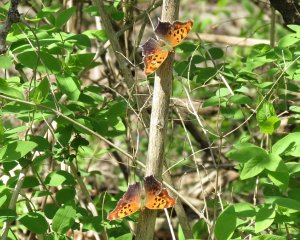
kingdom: Animalia
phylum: Arthropoda
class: Insecta
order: Lepidoptera
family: Nymphalidae
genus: Polygonia
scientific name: Polygonia interrogationis
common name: Question Mark
